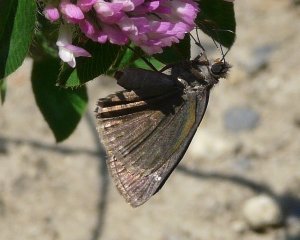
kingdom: Animalia
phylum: Arthropoda
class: Insecta
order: Lepidoptera
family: Hesperiidae
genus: Gesta
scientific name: Gesta
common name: Wild Indigo Duskywing
